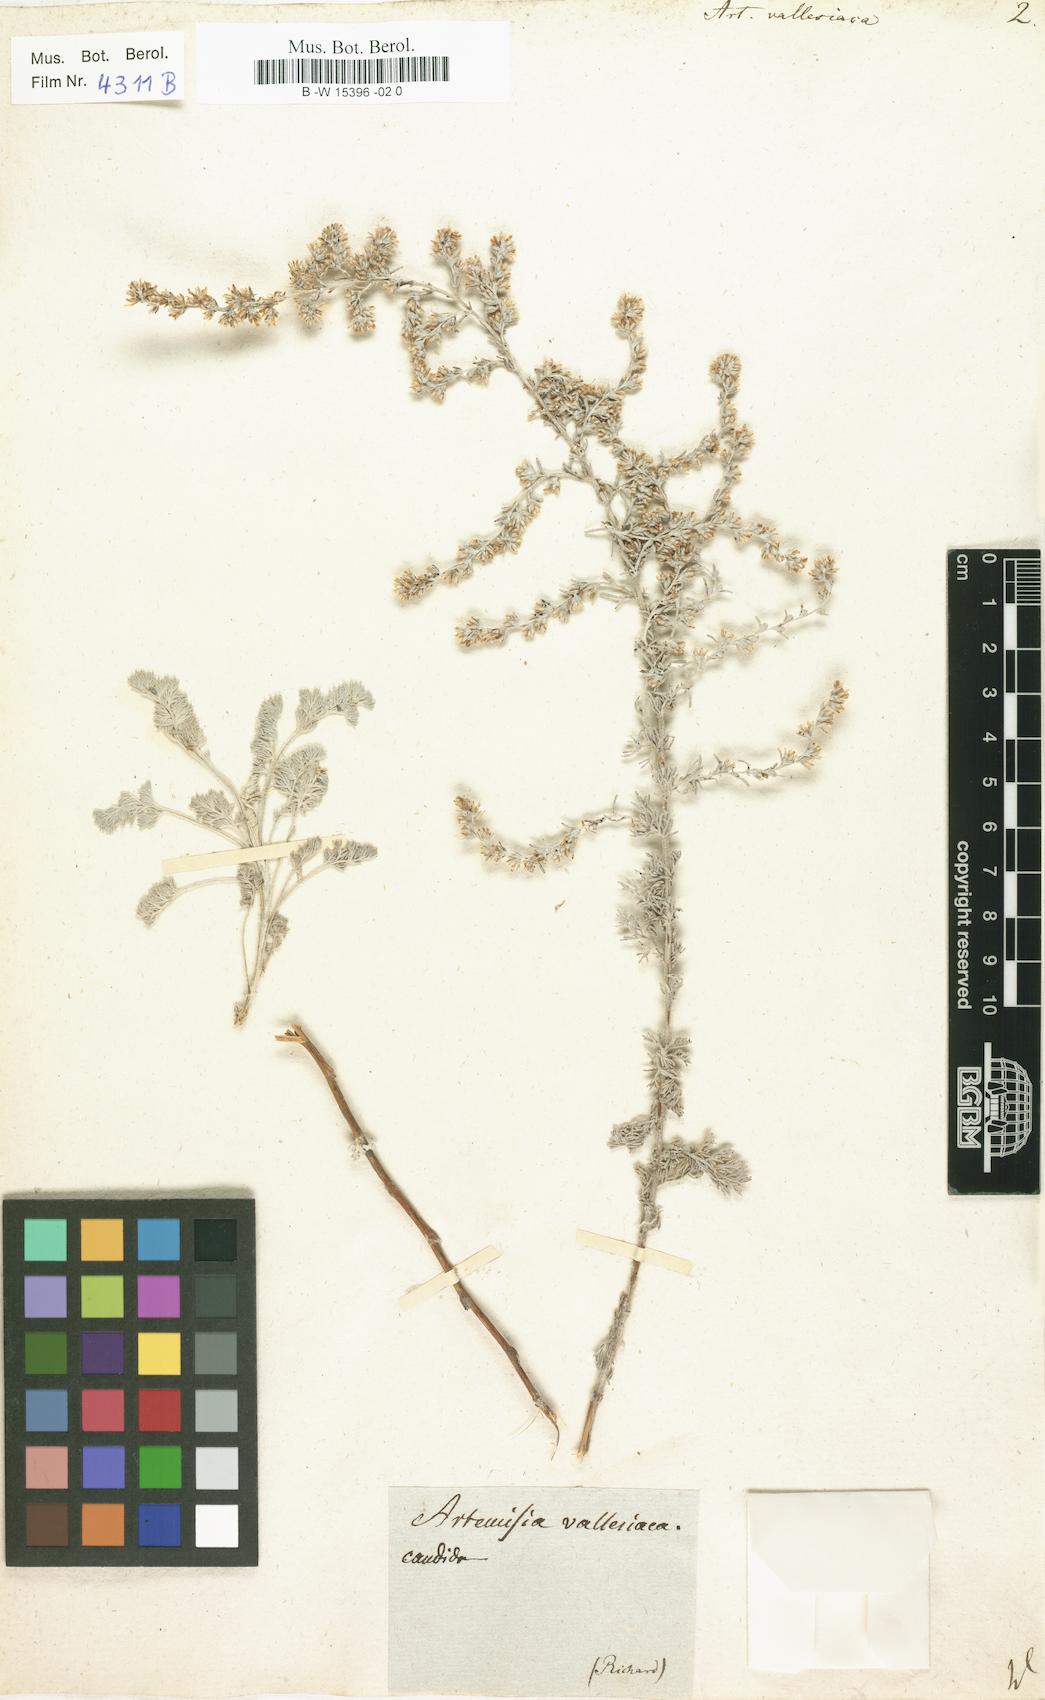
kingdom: Plantae
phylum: Tracheophyta
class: Magnoliopsida
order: Asterales
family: Asteraceae
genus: Artemisia
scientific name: Artemisia vallesiaca
